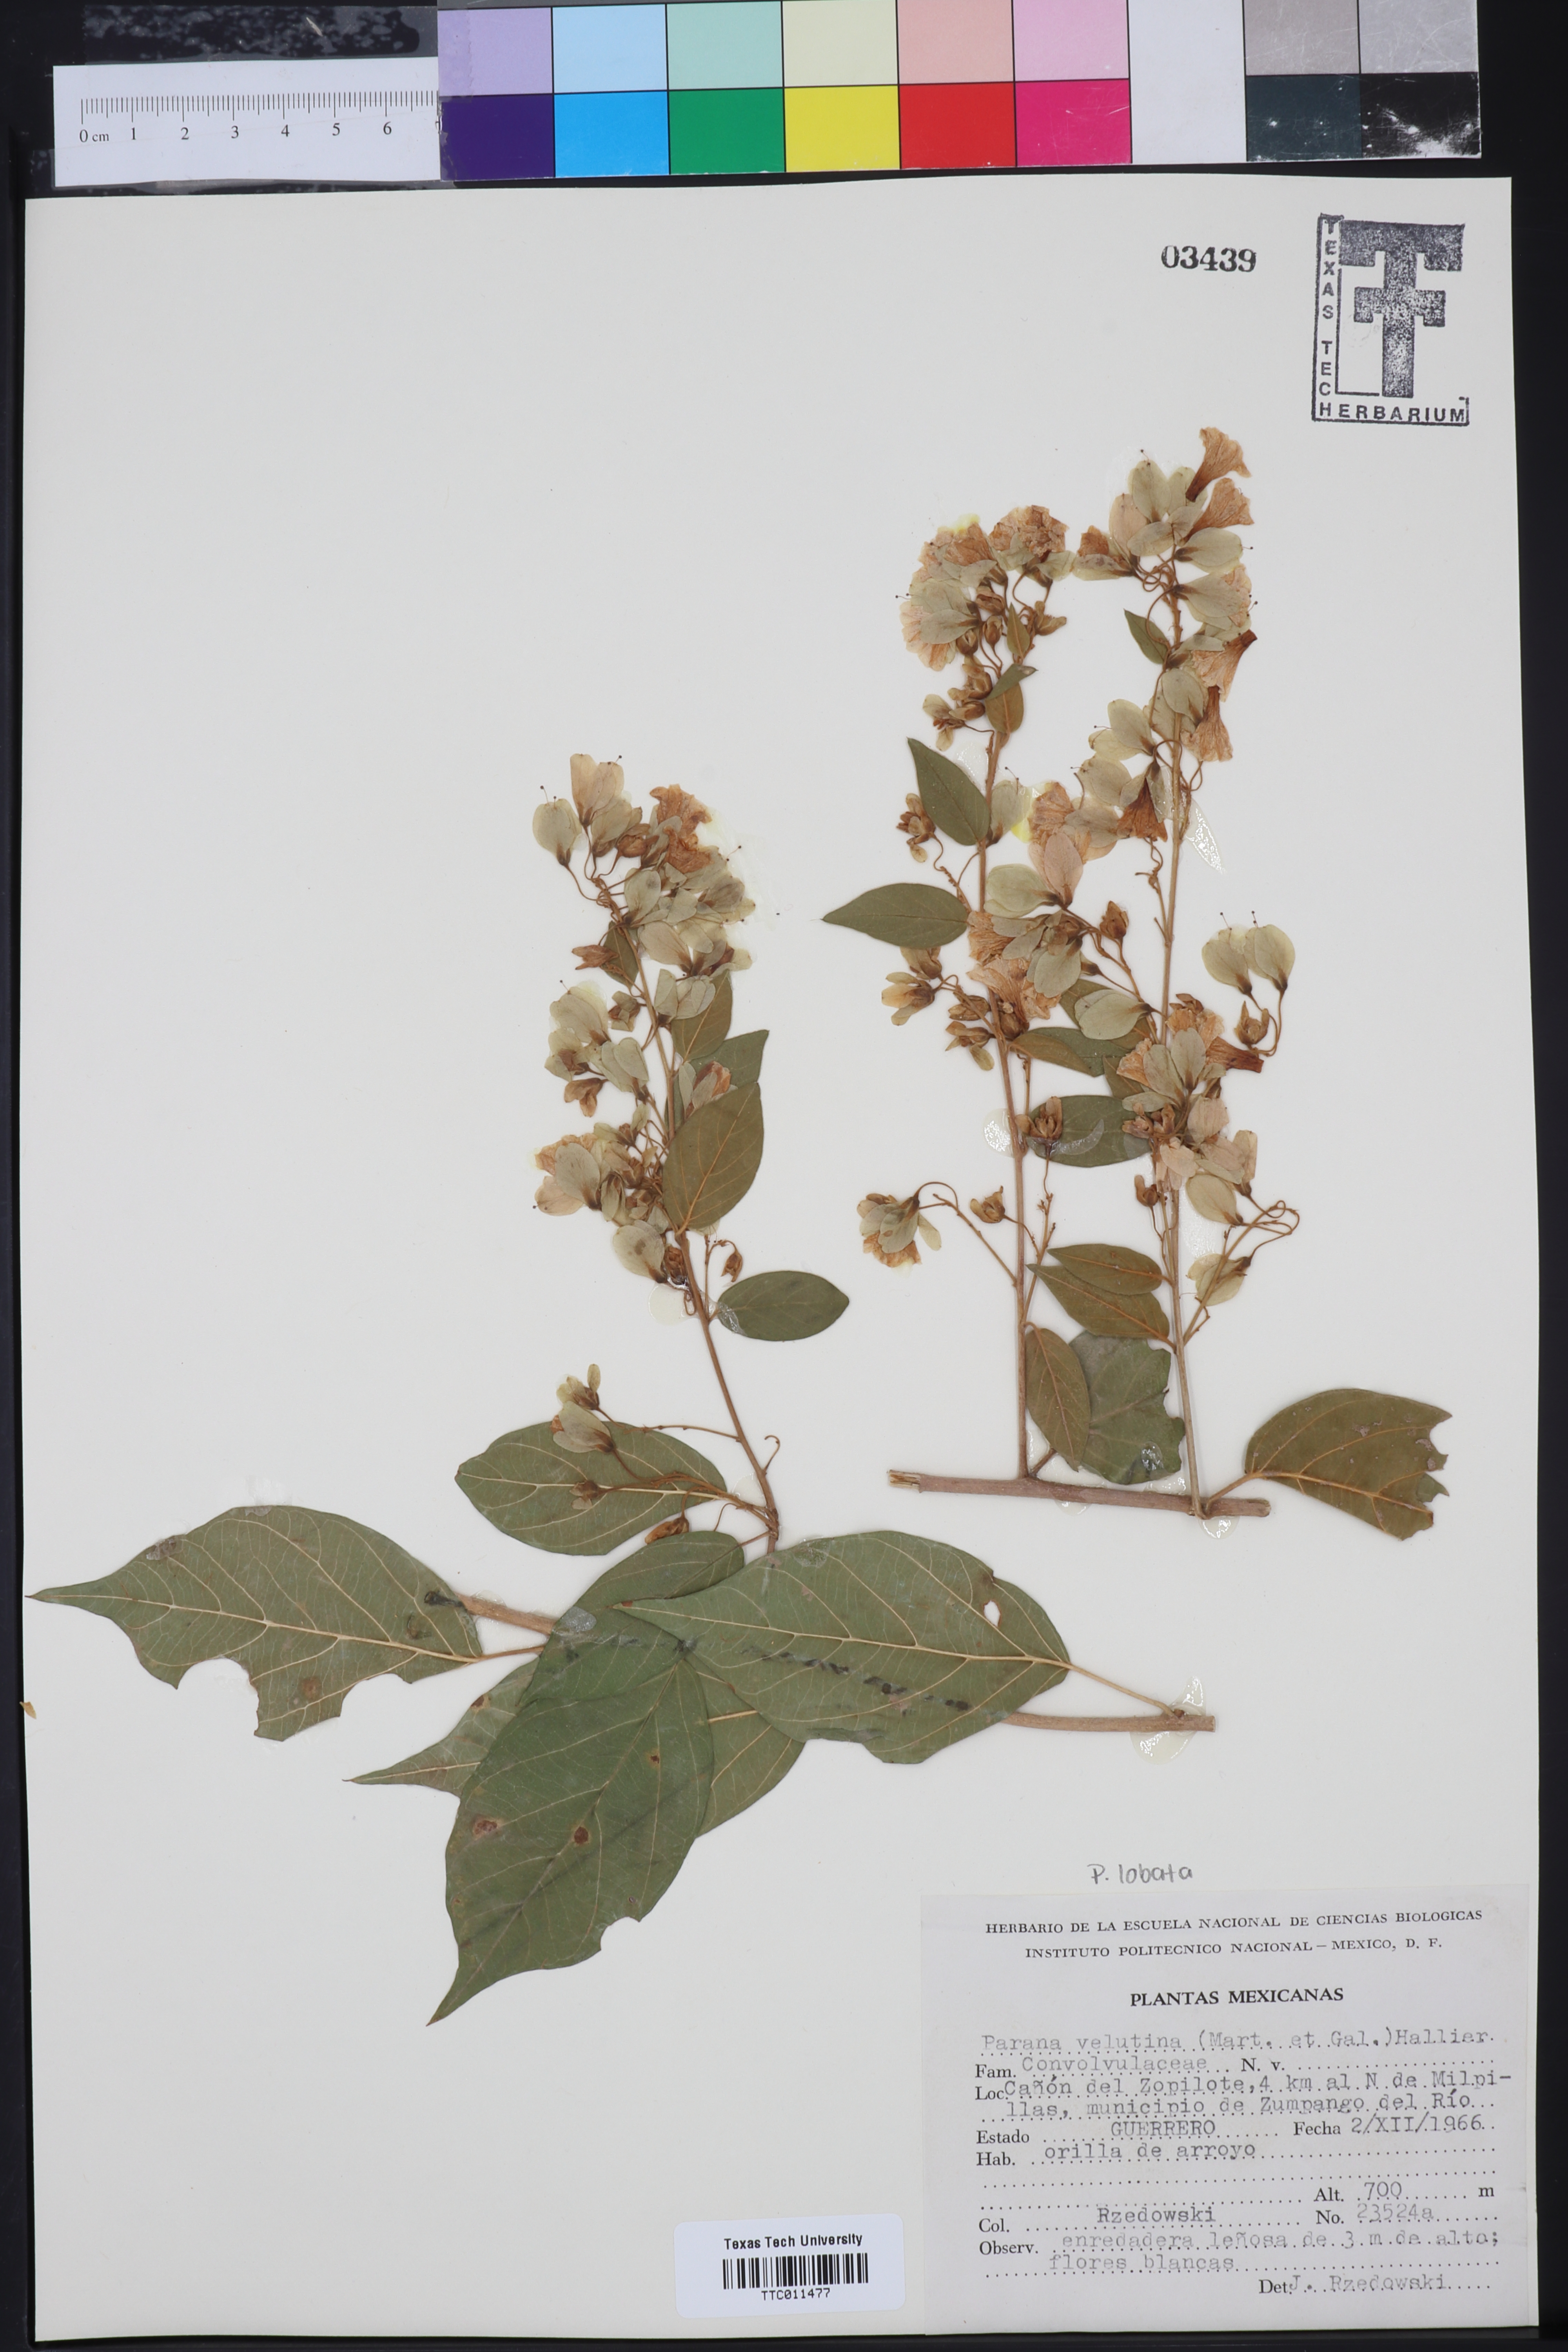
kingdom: Plantae
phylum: Tracheophyta
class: Magnoliopsida
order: Solanales
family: Convolvulaceae
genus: Calycobolus
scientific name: Calycobolus nutans
